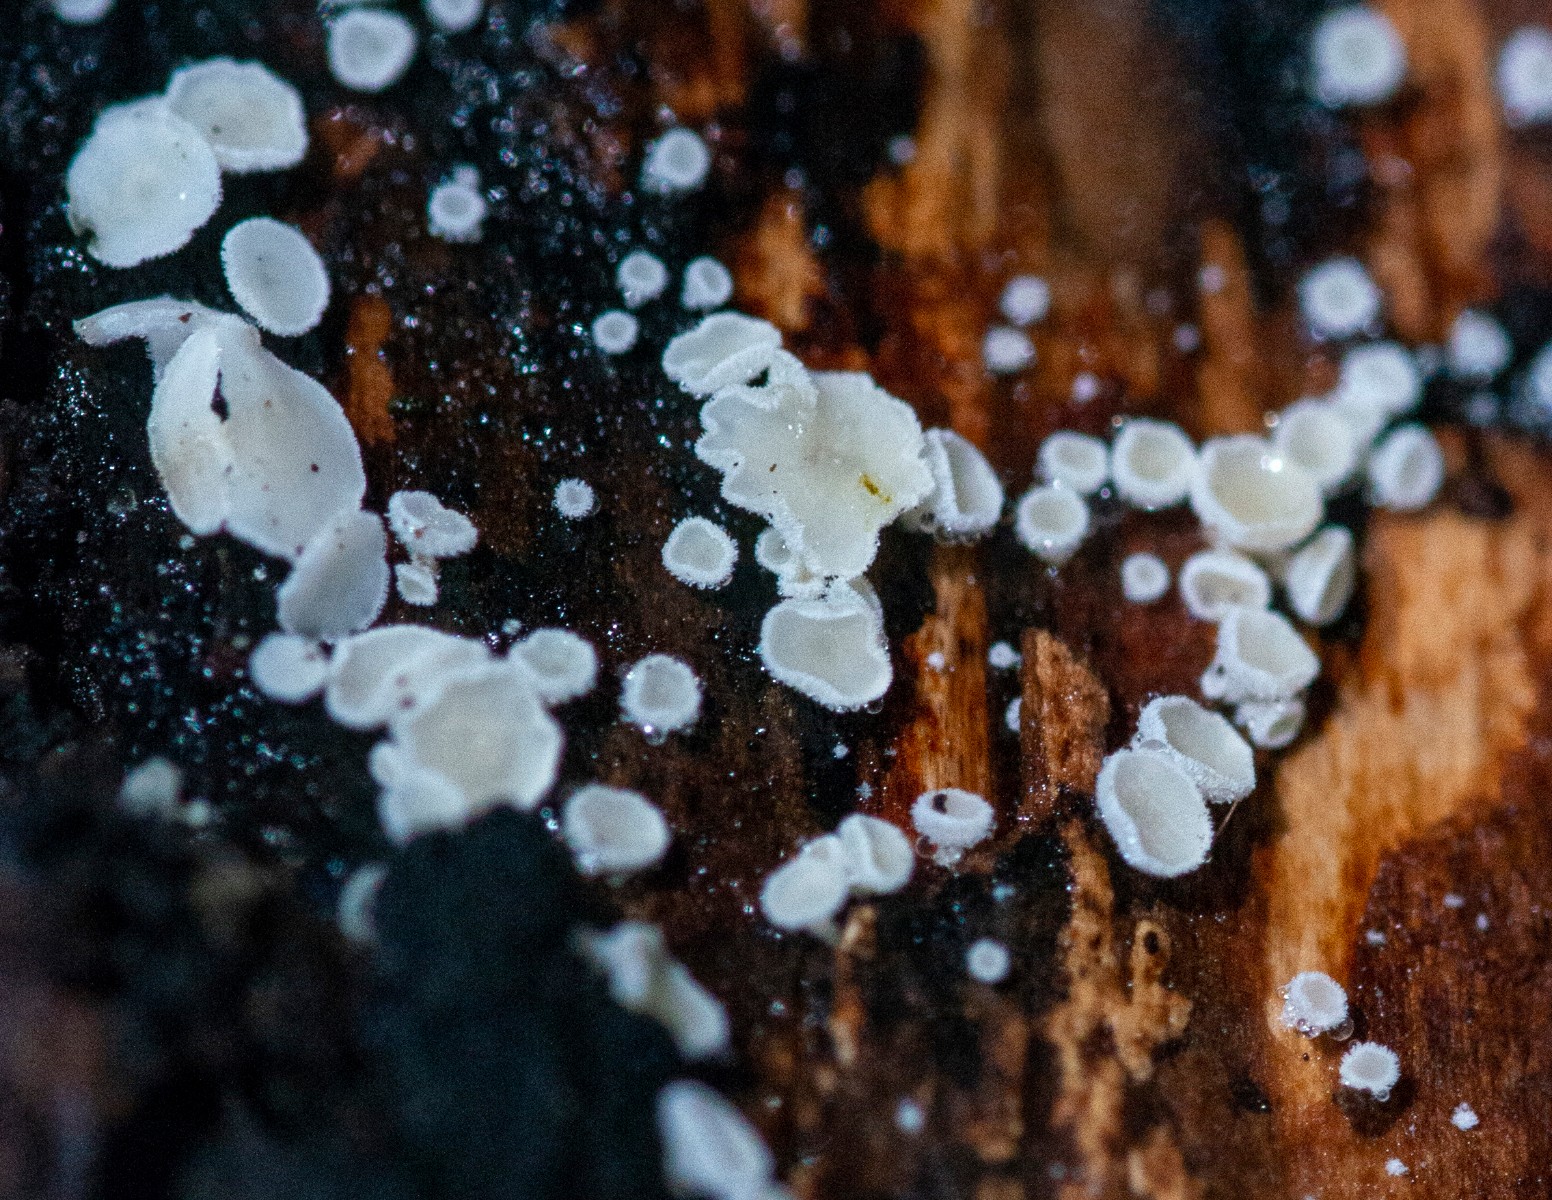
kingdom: Fungi
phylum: Ascomycota
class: Leotiomycetes
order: Helotiales
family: Lachnaceae
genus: Lachnum
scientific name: Lachnum
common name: frynseskive
